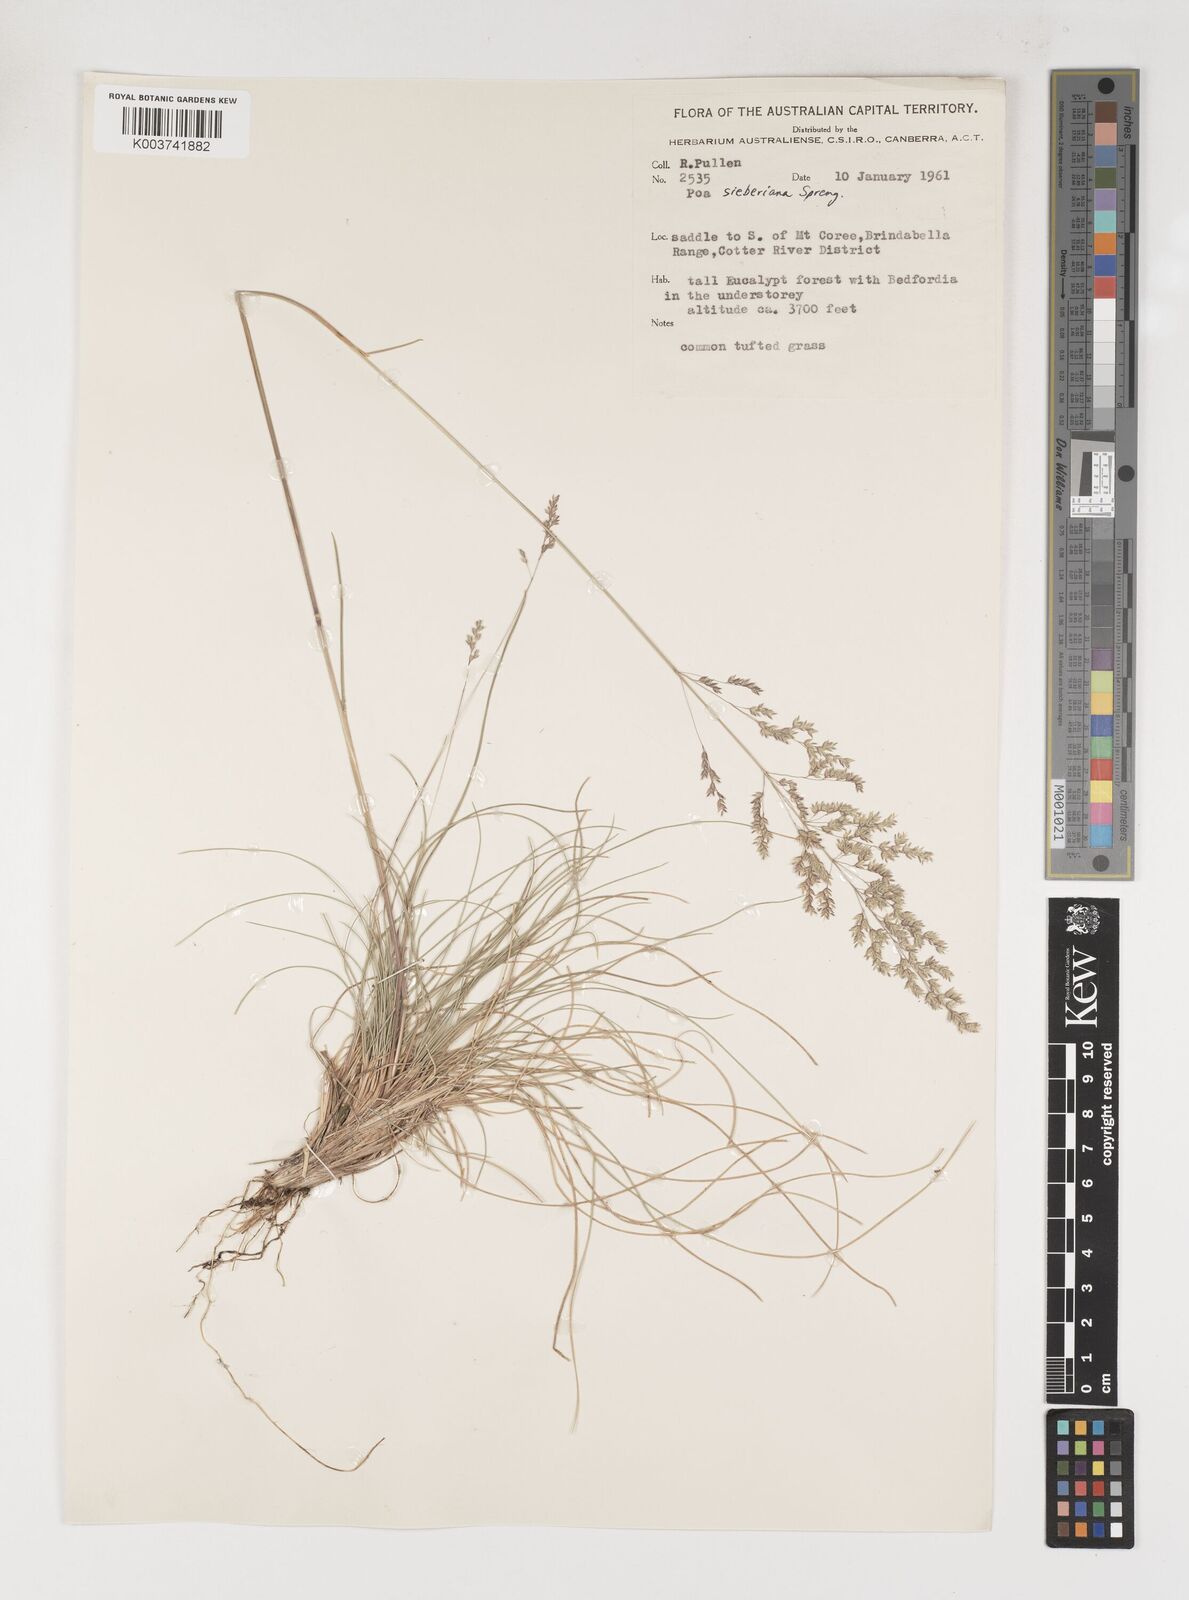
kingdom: Plantae
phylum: Tracheophyta
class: Liliopsida
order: Poales
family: Poaceae
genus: Poa
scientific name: Poa sieberiana
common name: Tussock poa
